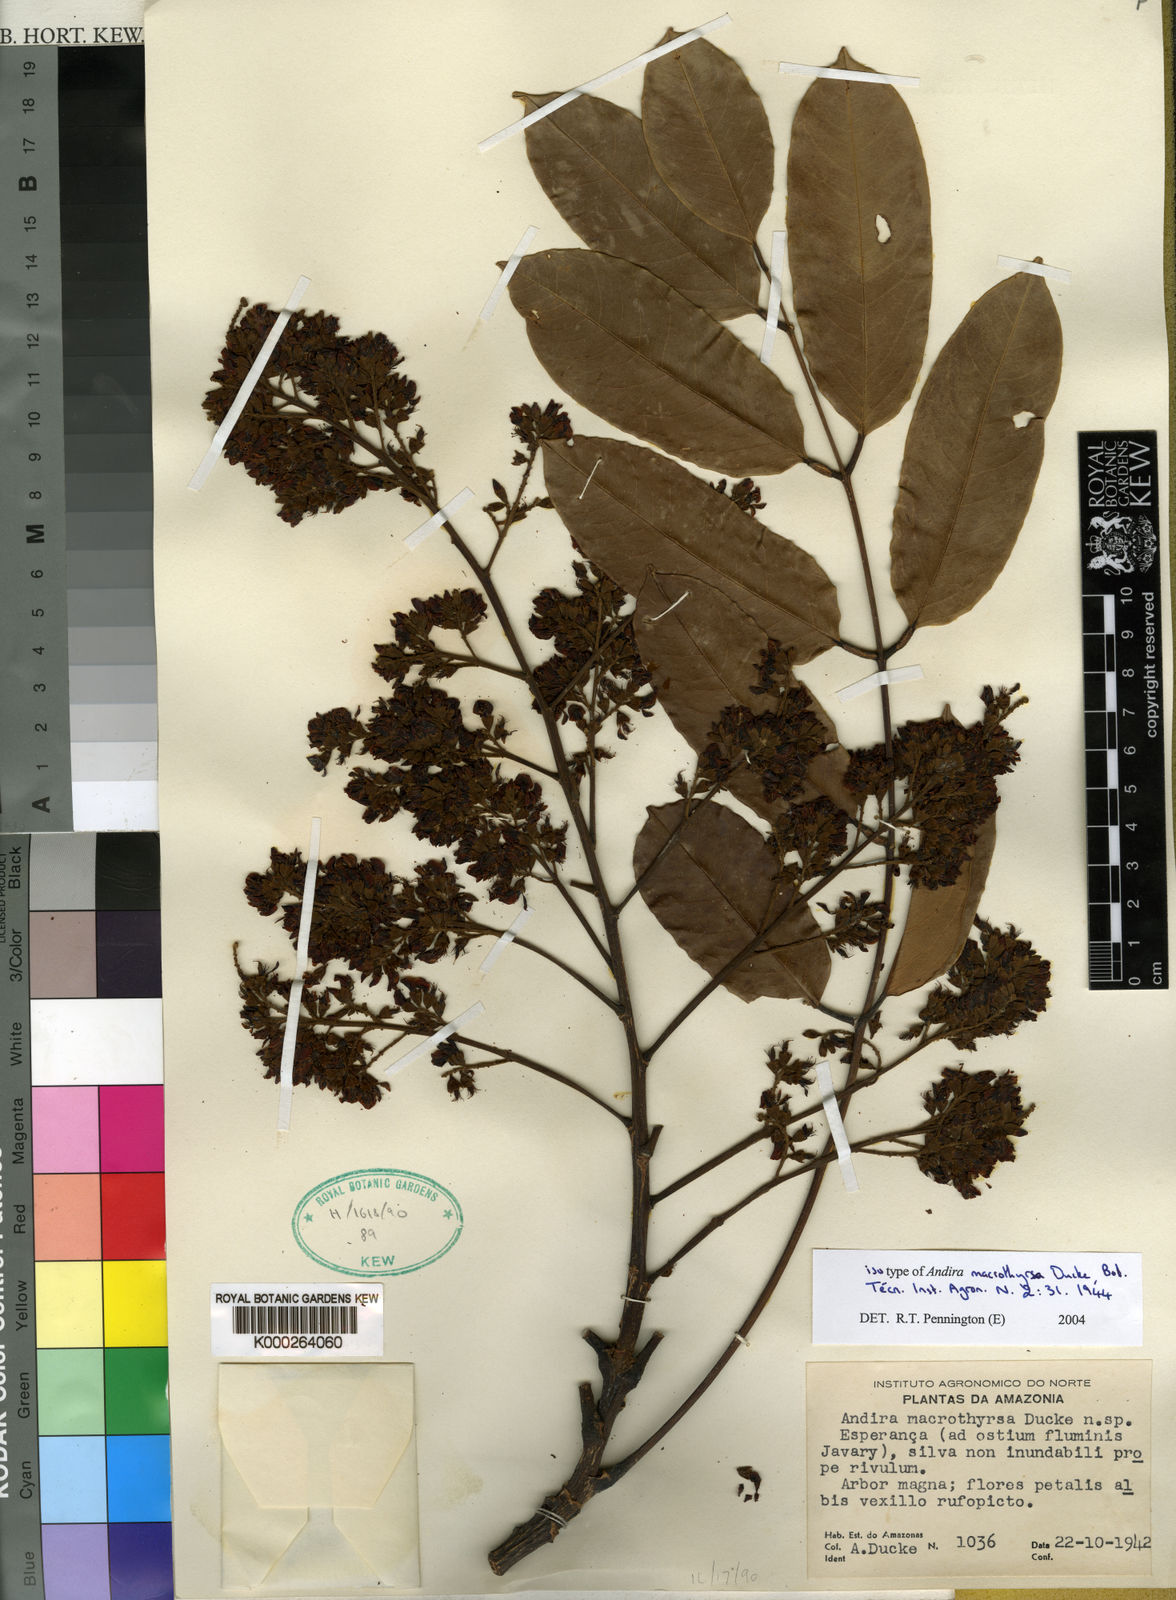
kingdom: Plantae
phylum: Tracheophyta
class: Magnoliopsida
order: Fabales
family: Fabaceae
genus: Andira
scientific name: Andira macrothyrsa
